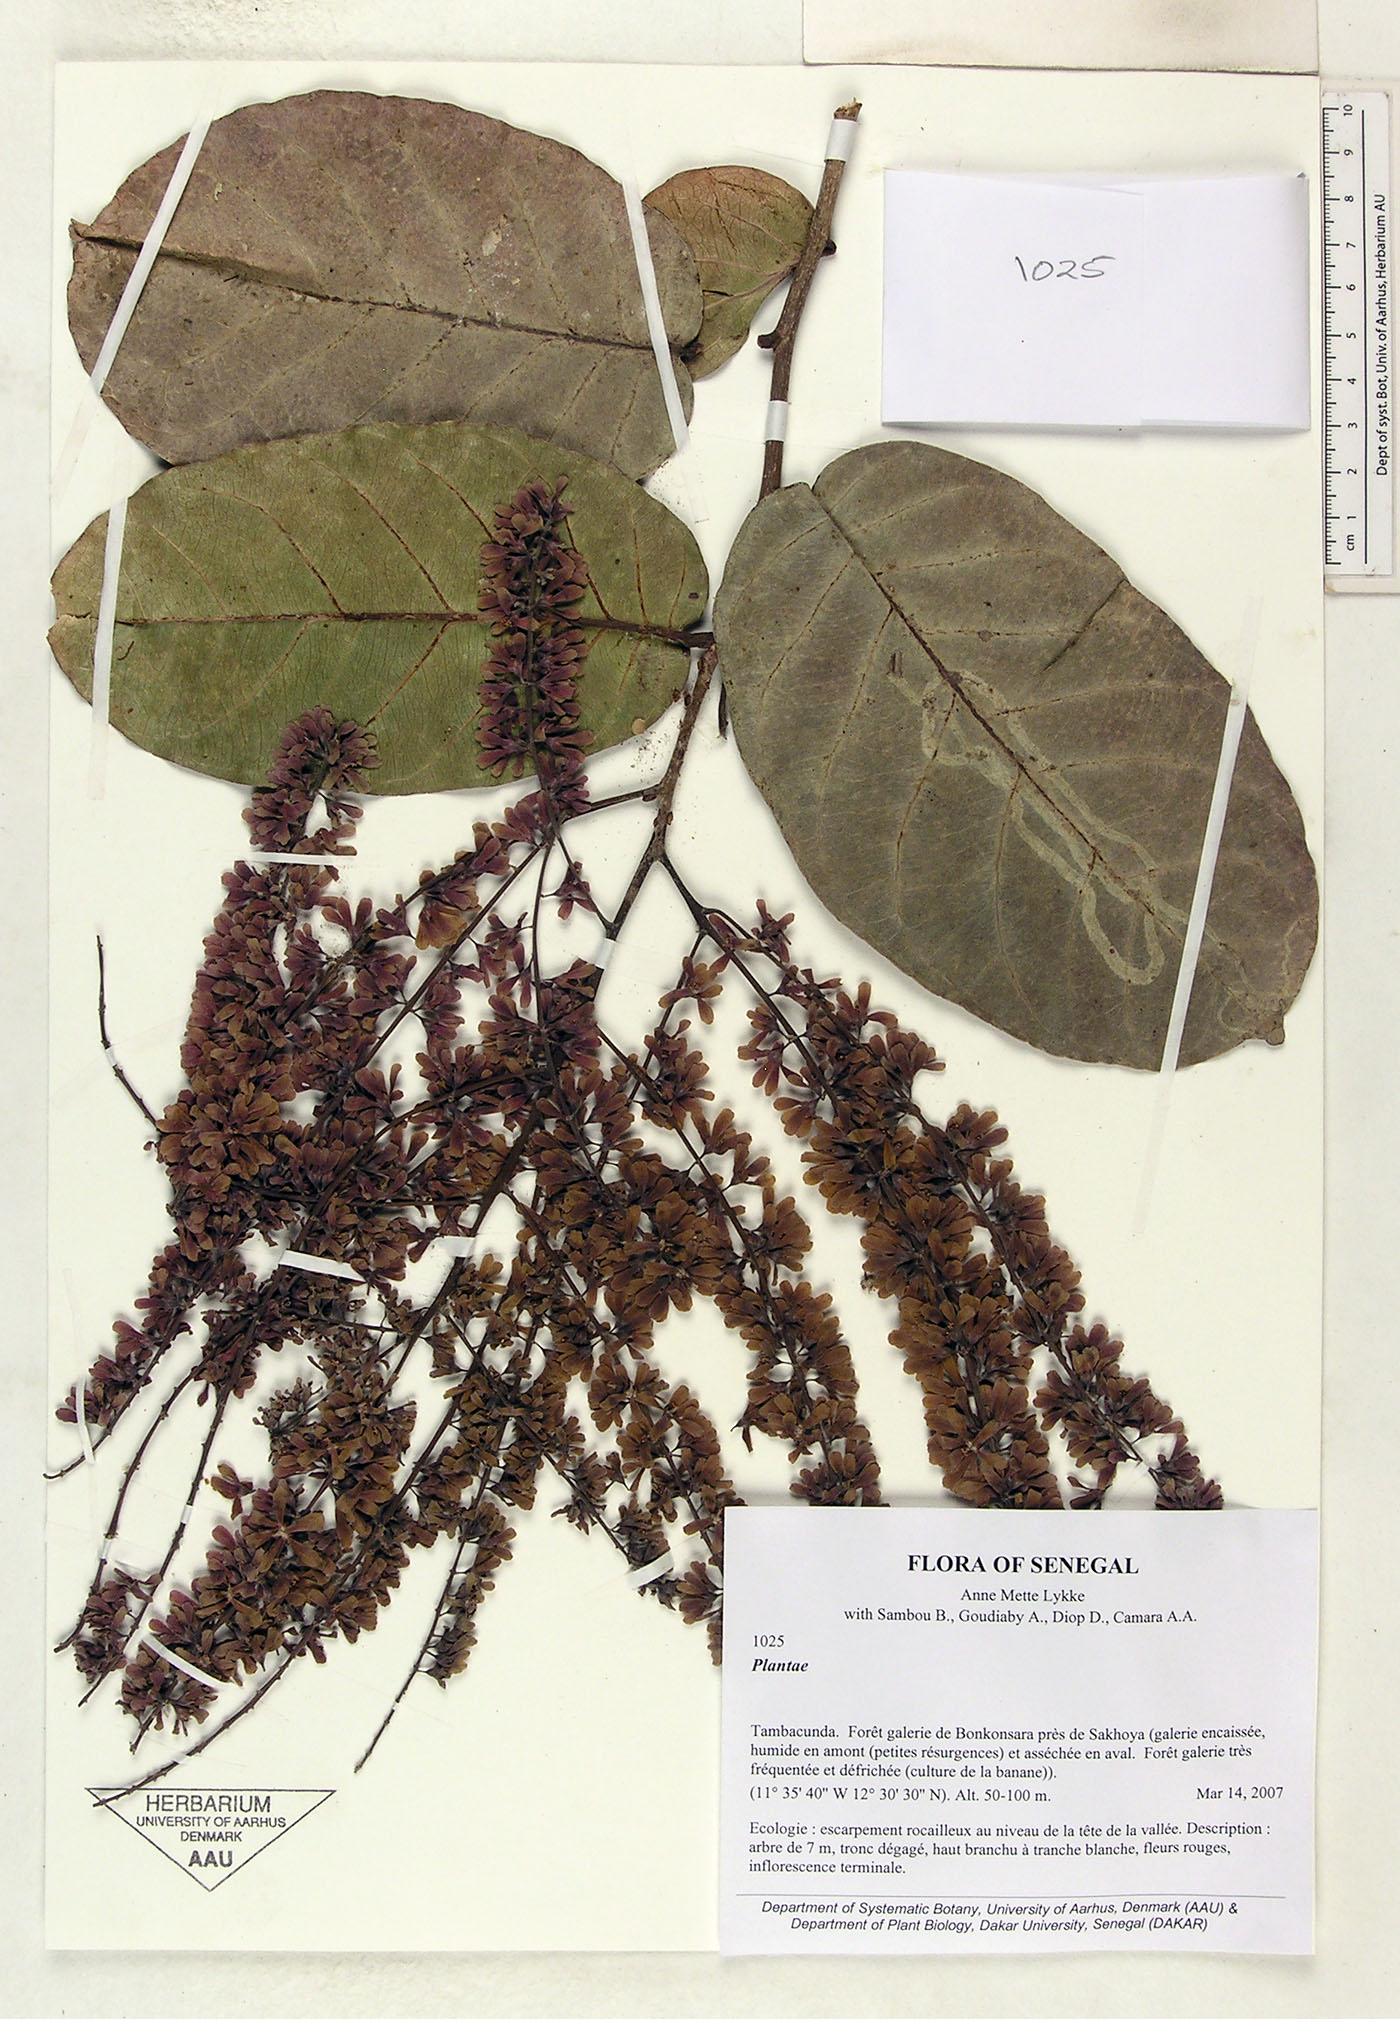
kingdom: Plantae
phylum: Tracheophyta
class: Magnoliopsida
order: Malpighiales
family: Salicaceae
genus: Homalium
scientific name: Homalium letestui
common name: African homalium
